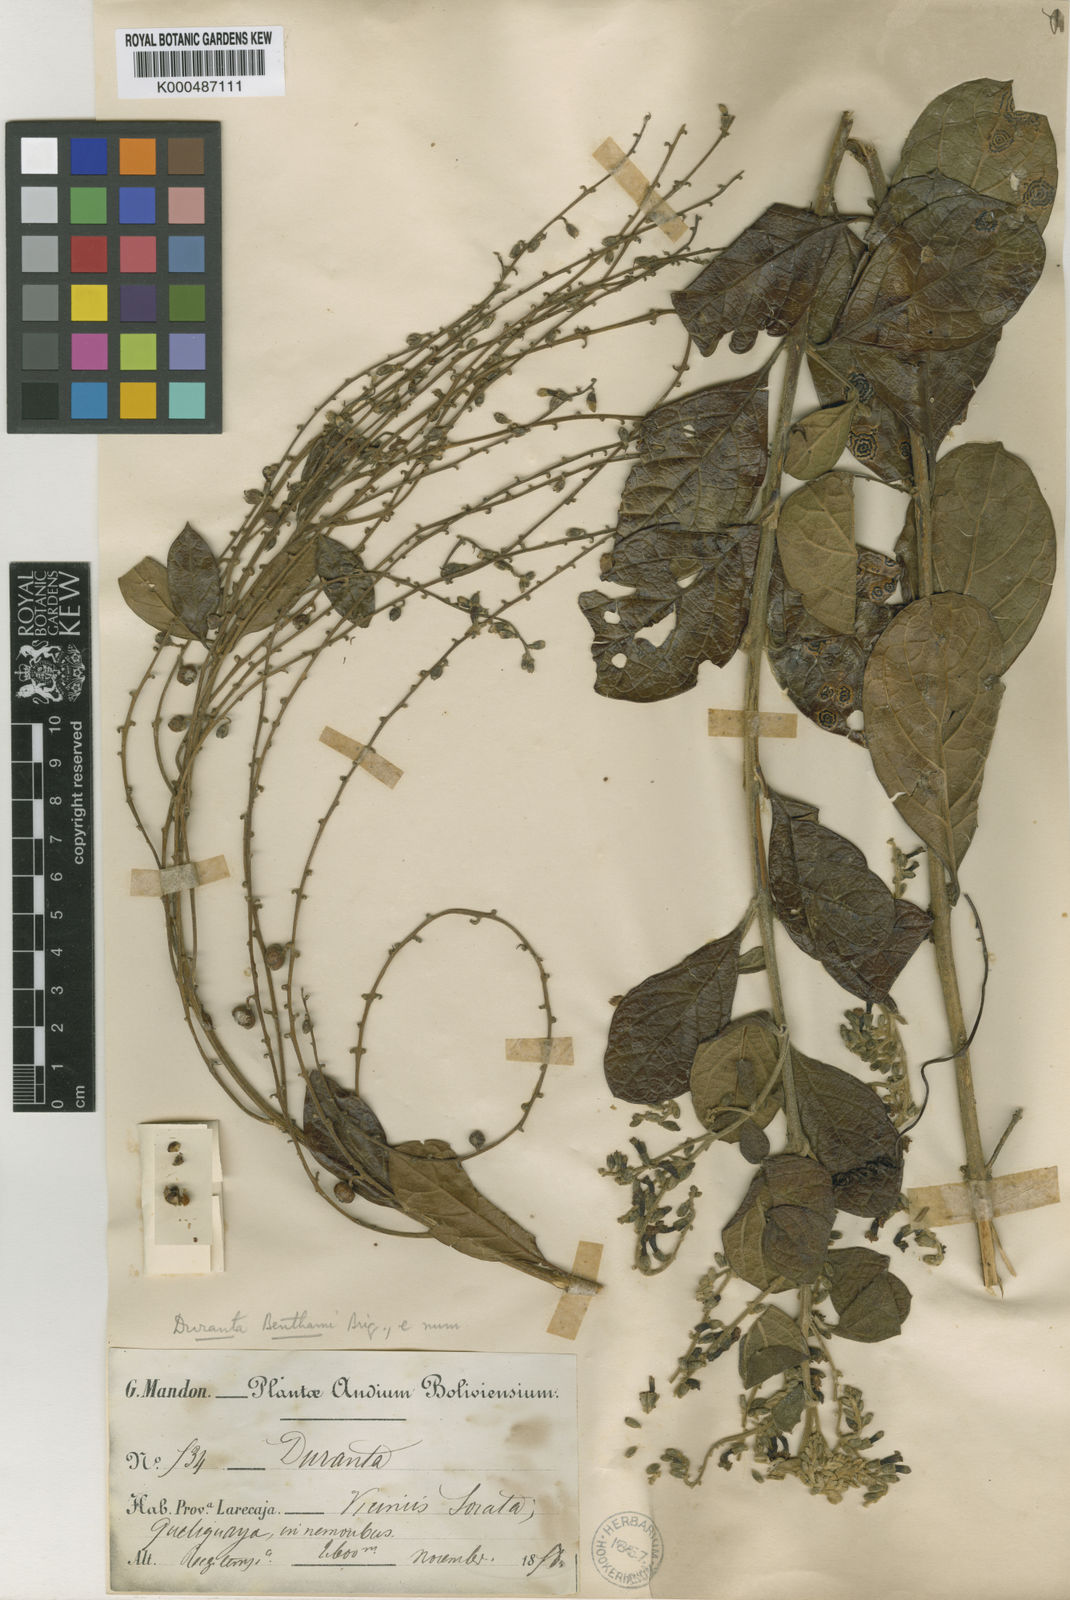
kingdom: Plantae
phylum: Tracheophyta
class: Magnoliopsida
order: Lamiales
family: Verbenaceae
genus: Duranta
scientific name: Duranta benthamii
